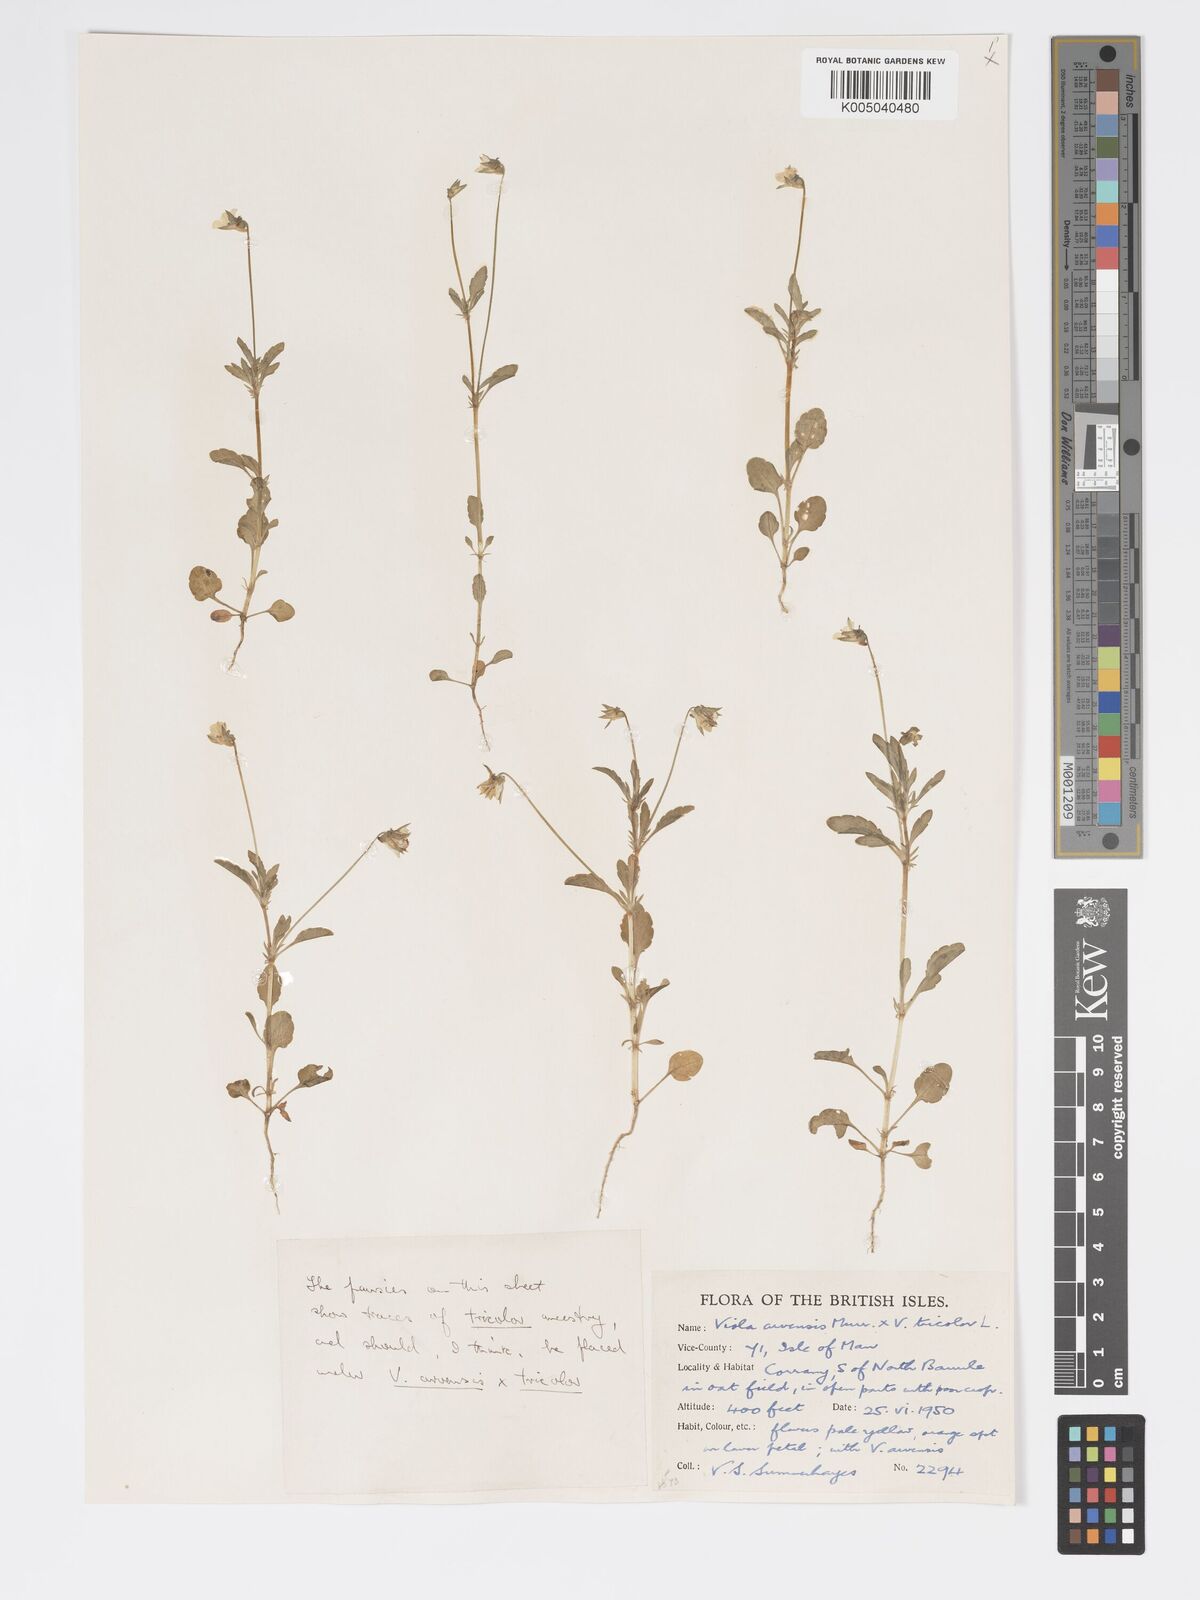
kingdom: Plantae
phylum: Tracheophyta
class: Magnoliopsida
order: Malpighiales
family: Violaceae
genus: Viola
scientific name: Viola arvensis
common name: Field pansy
